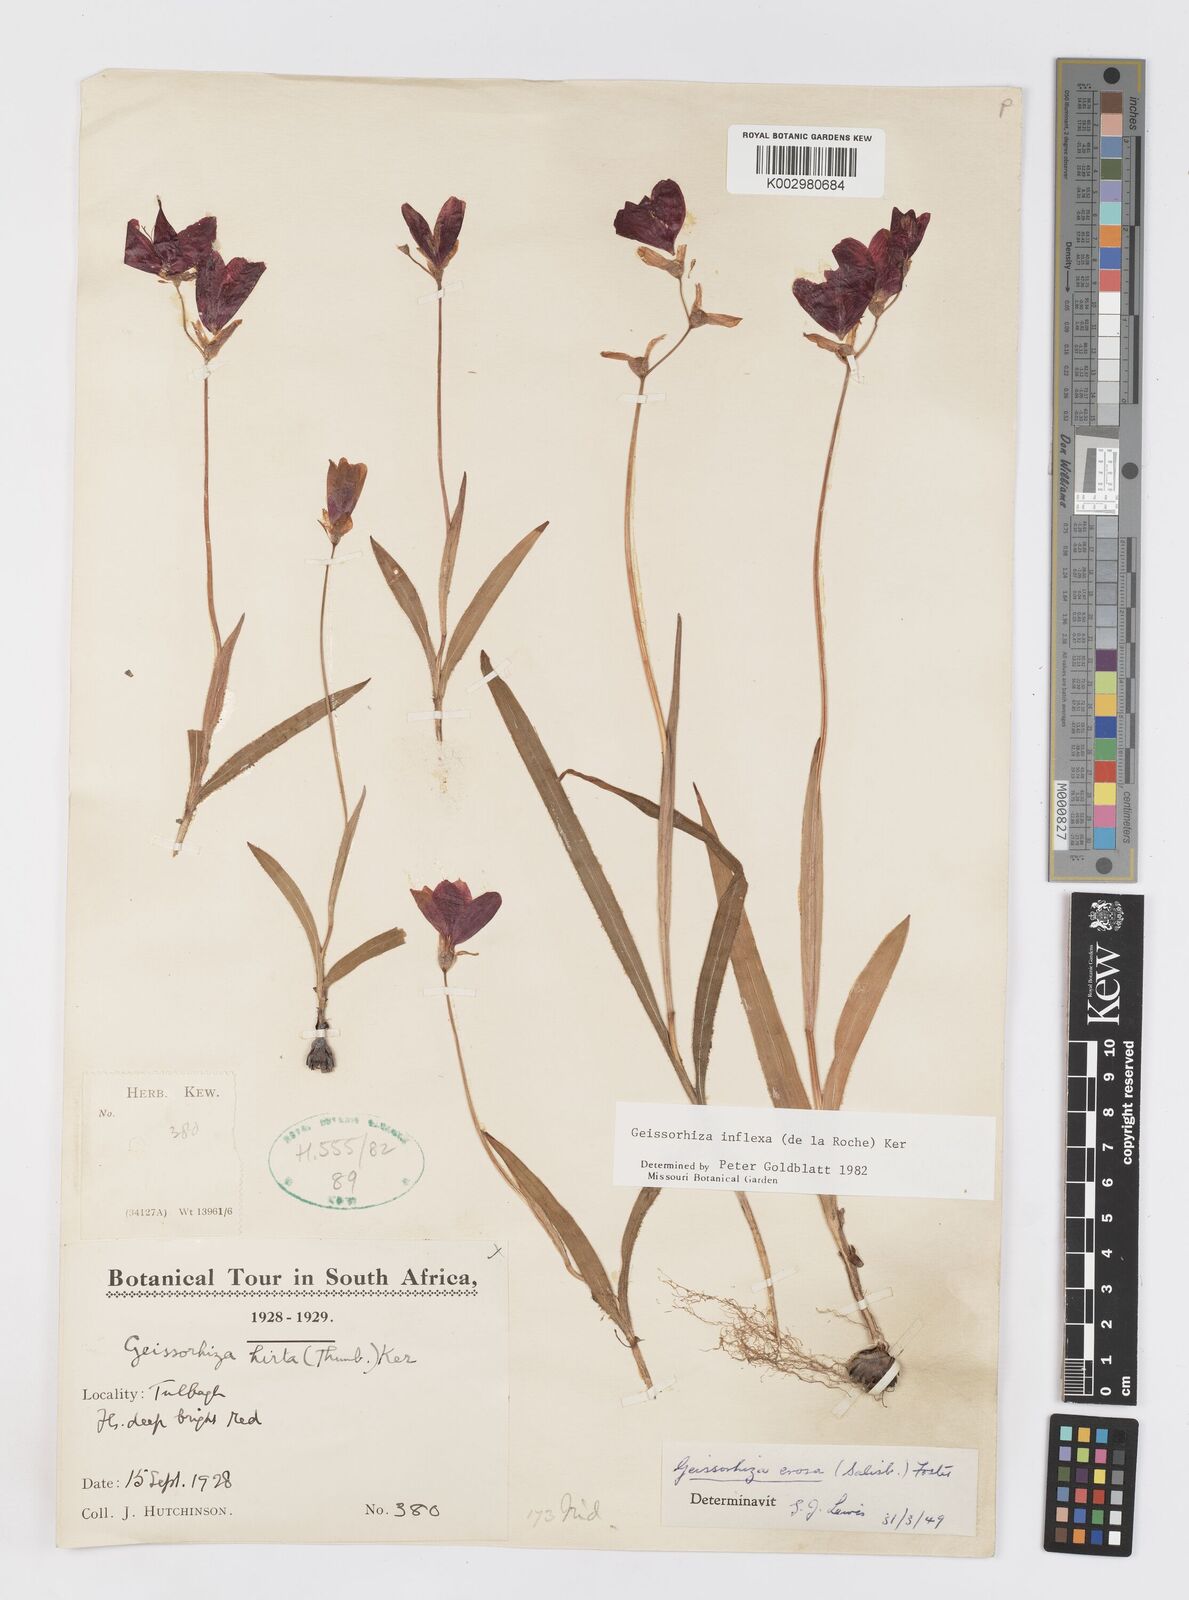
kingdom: Plantae
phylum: Tracheophyta
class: Liliopsida
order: Asparagales
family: Iridaceae
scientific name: Iridaceae
